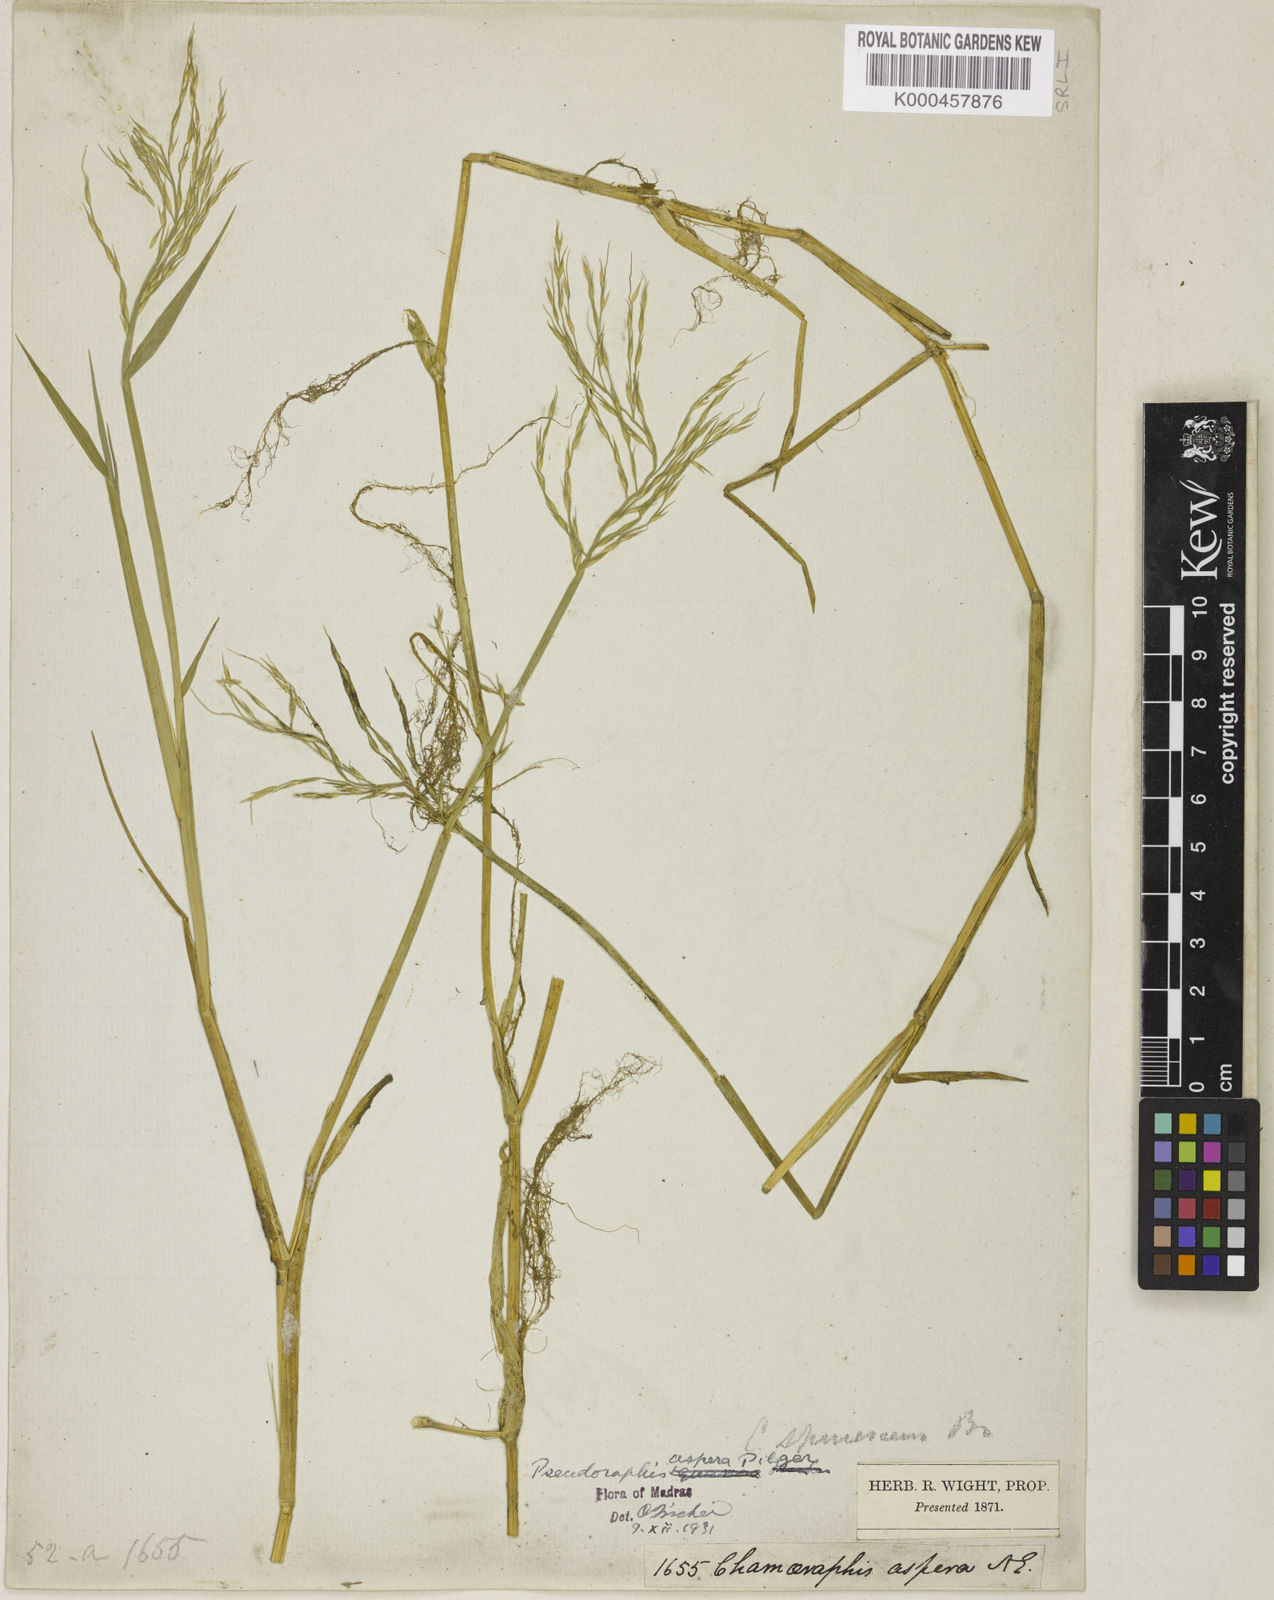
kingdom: Plantae
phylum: Tracheophyta
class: Liliopsida
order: Poales
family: Poaceae
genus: Pseudoraphis
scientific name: Pseudoraphis sordida
